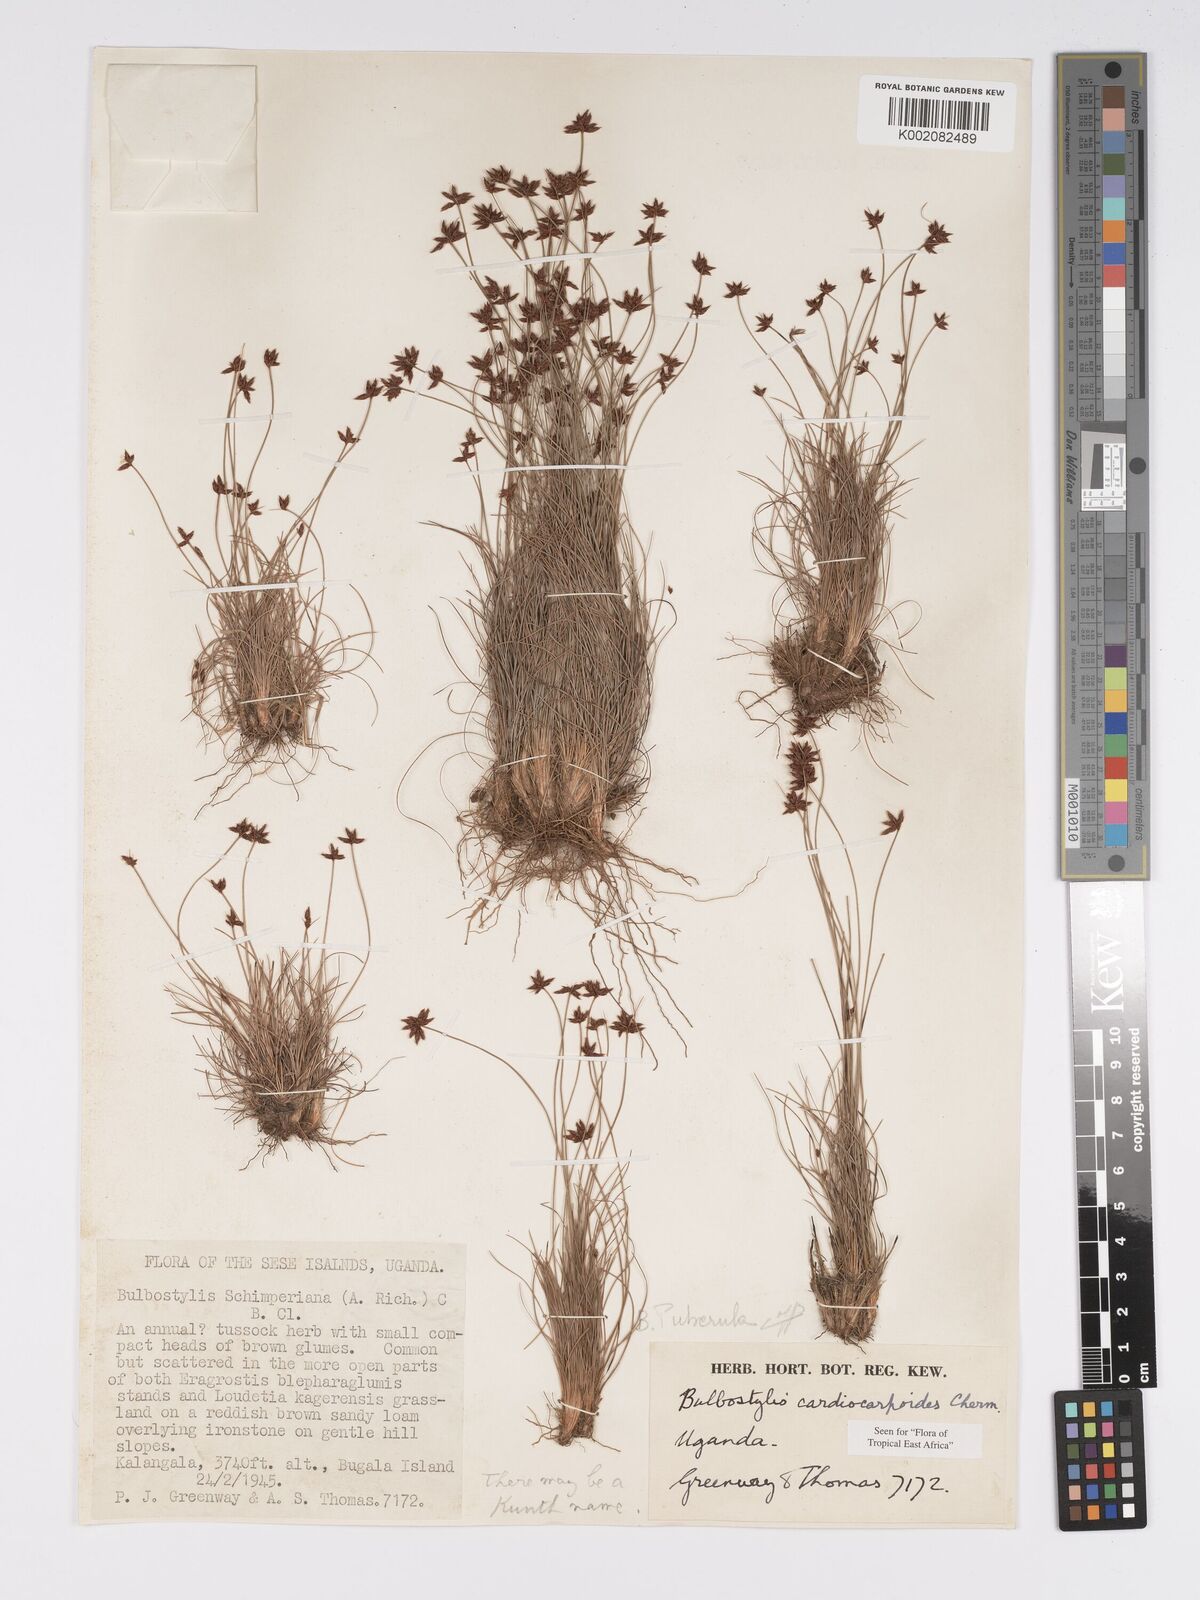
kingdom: Plantae
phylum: Tracheophyta
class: Liliopsida
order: Poales
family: Cyperaceae
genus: Bulbostylis
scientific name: Bulbostylis cardiocarpoides
